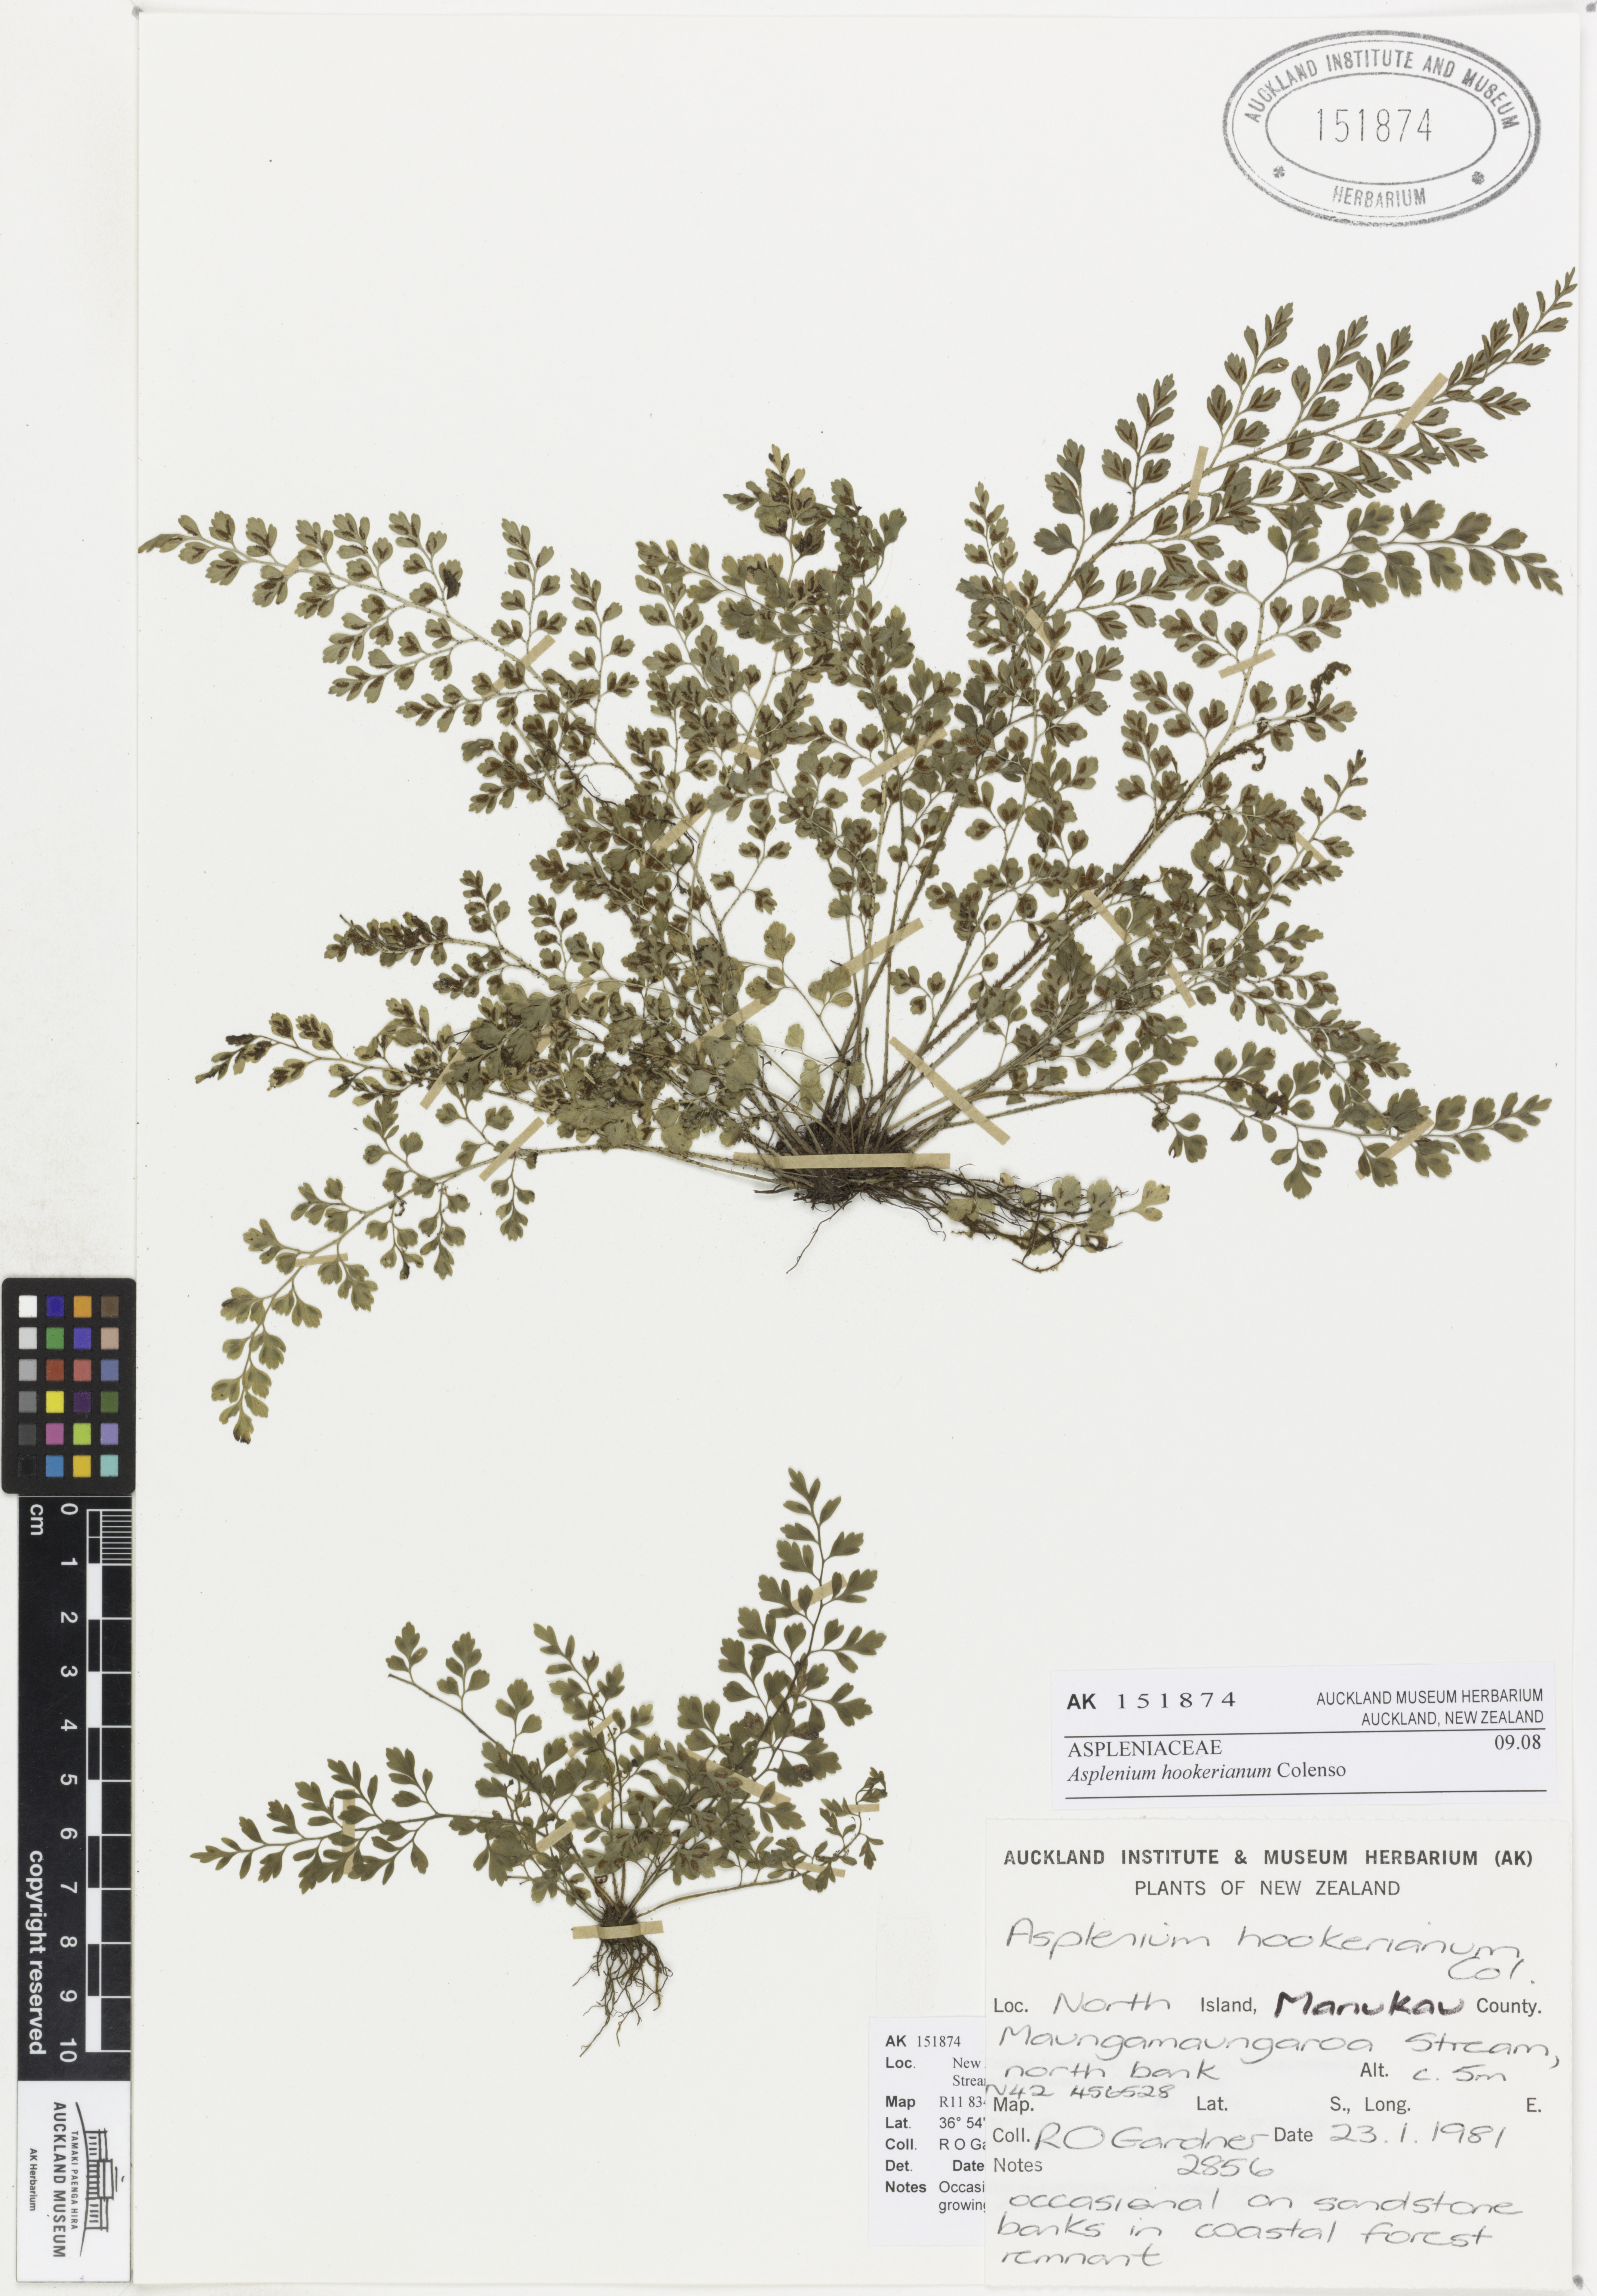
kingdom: Plantae
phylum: Tracheophyta
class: Polypodiopsida
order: Polypodiales
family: Aspleniaceae
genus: Asplenium
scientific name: Asplenium hookerianum
